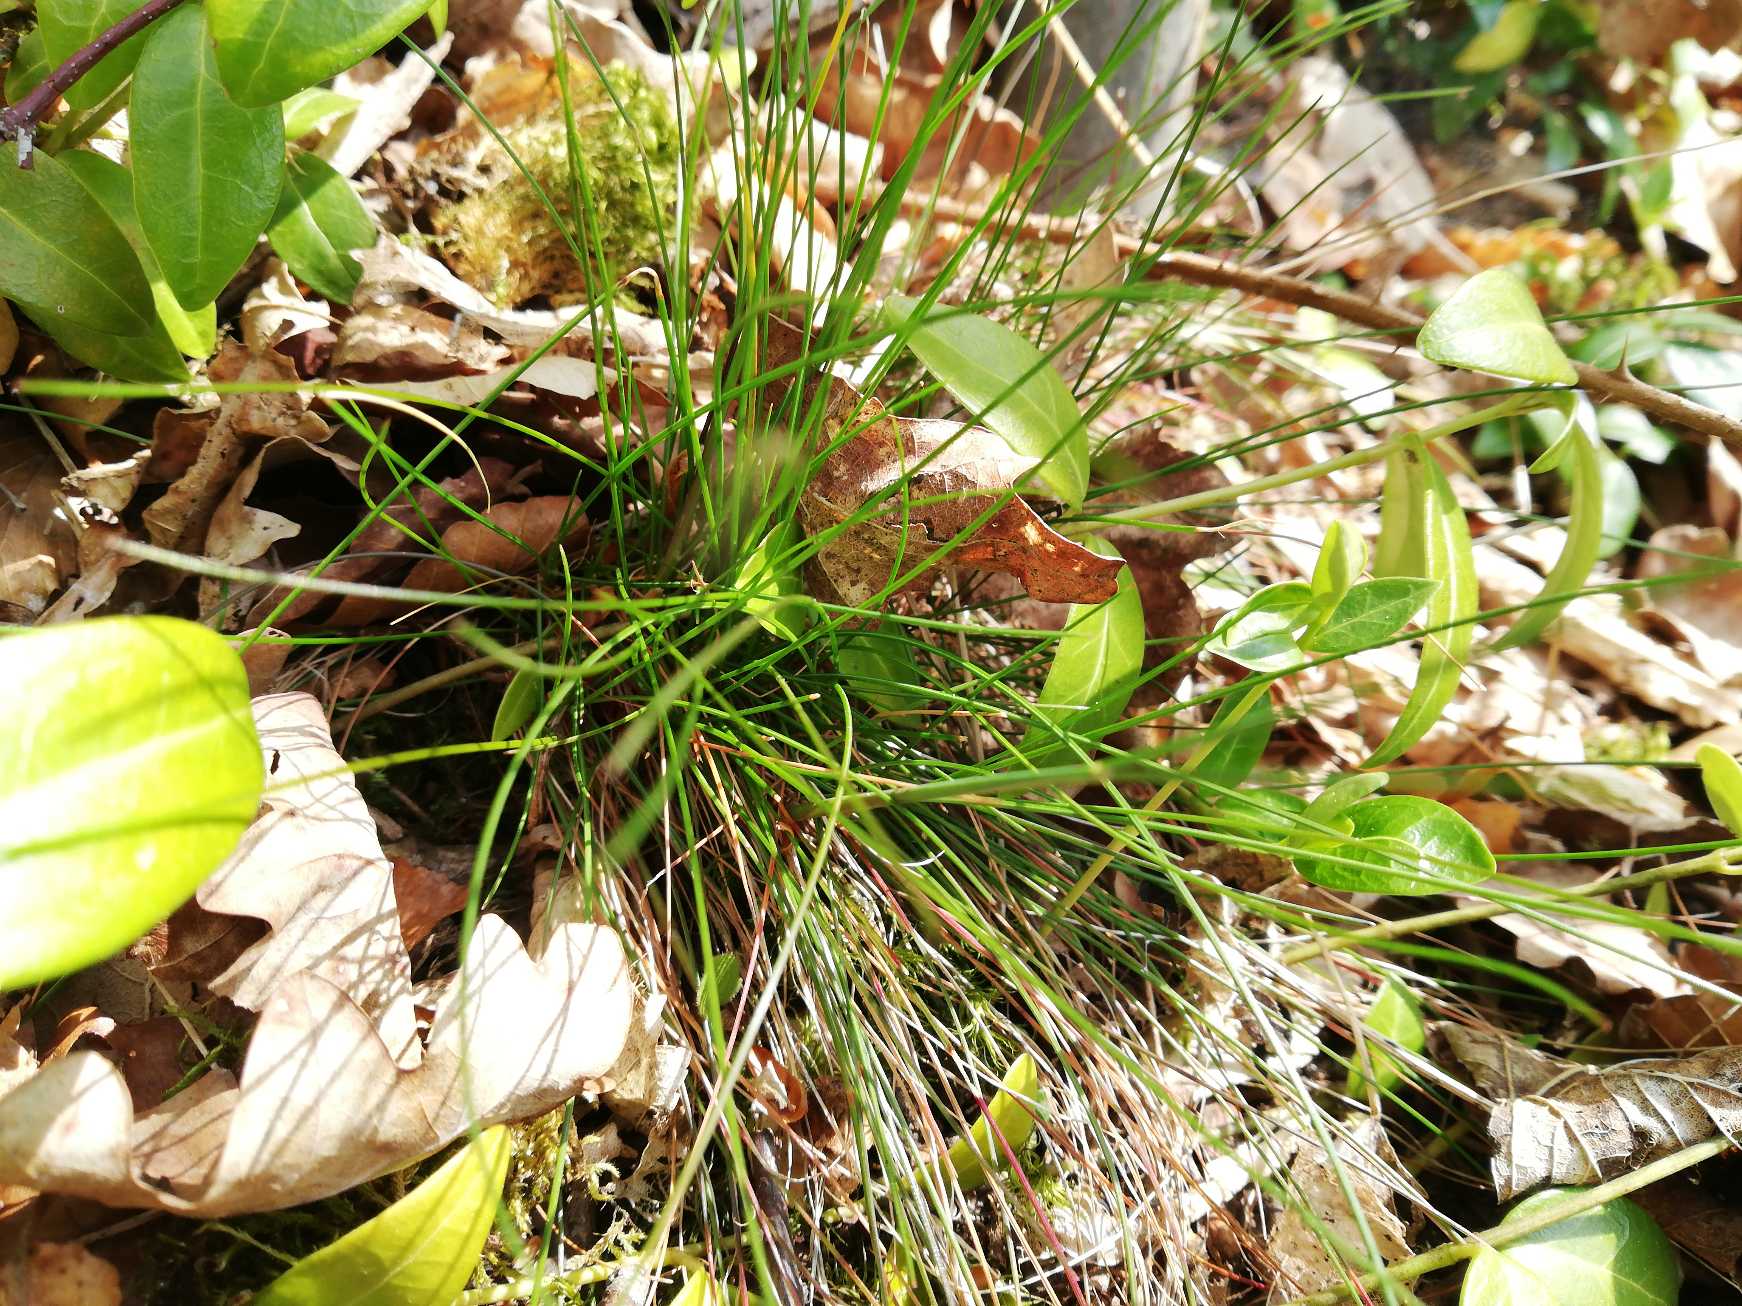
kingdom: Plantae
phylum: Tracheophyta
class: Liliopsida
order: Poales
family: Poaceae
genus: Avenella
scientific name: Avenella flexuosa
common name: Bølget bunke
